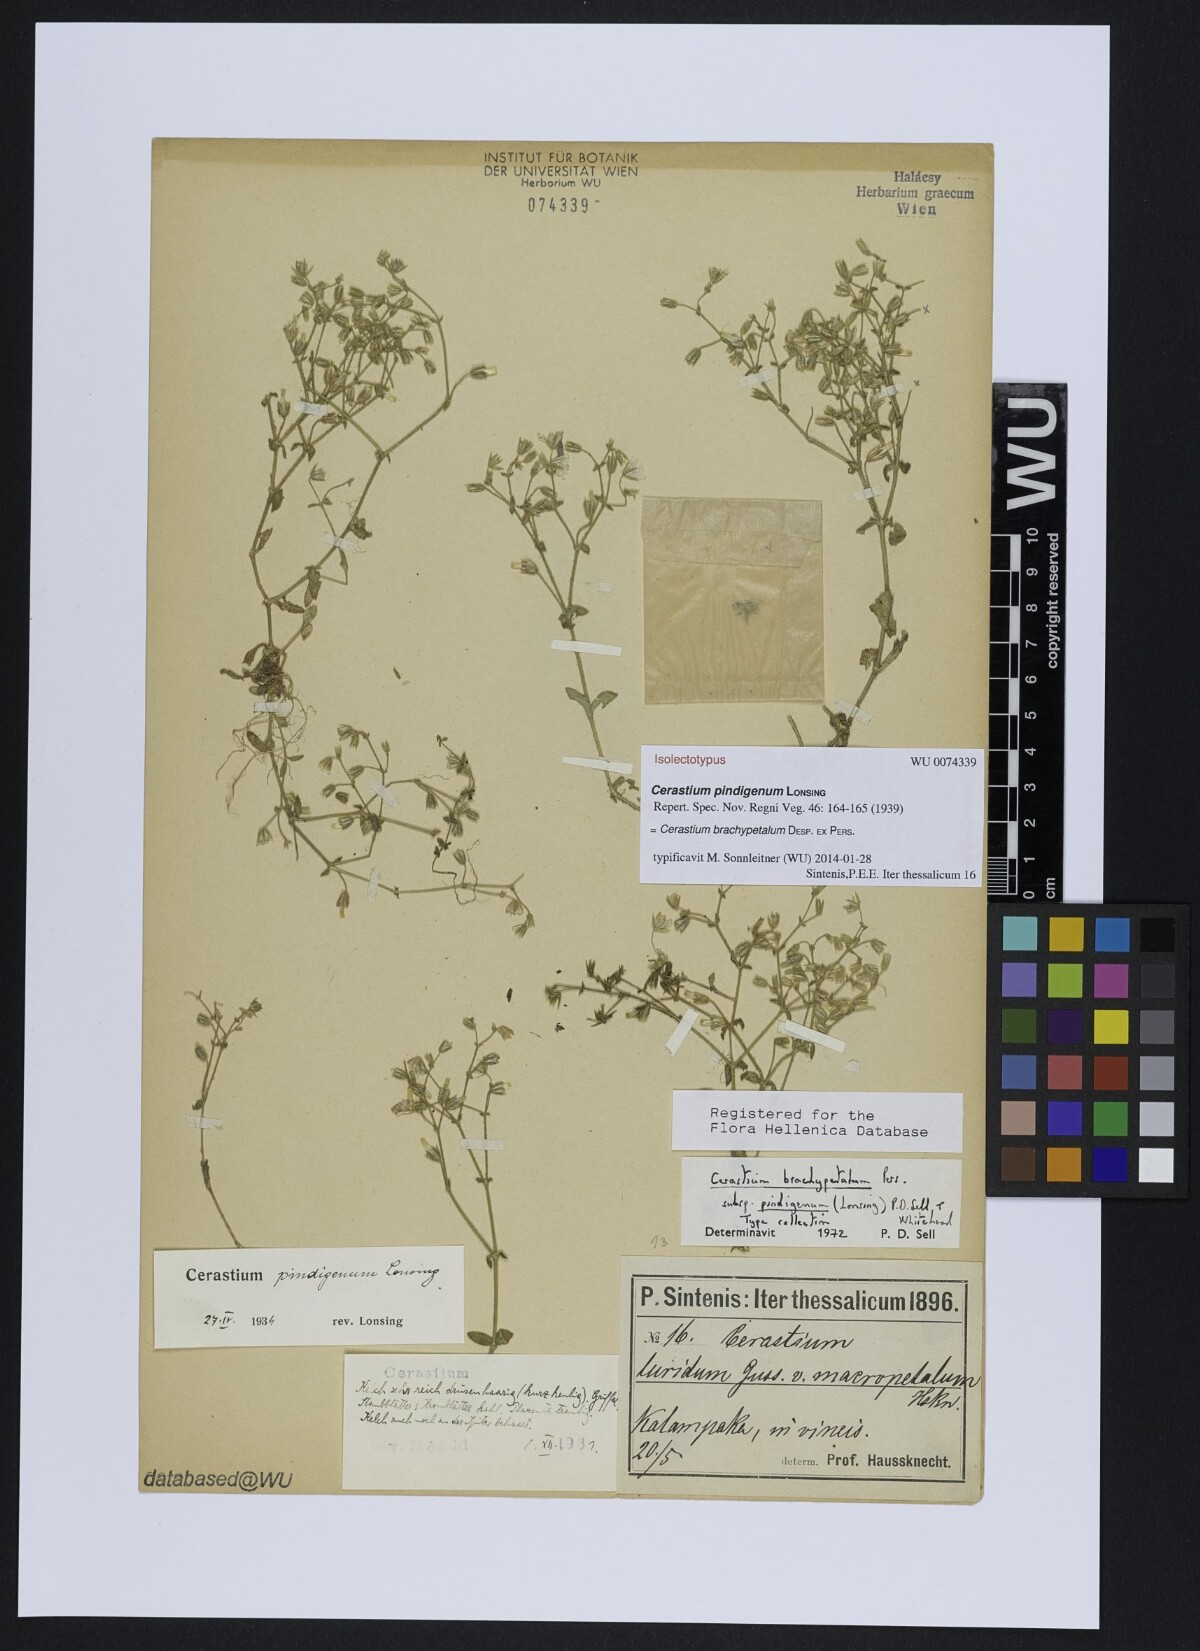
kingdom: Plantae
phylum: Tracheophyta
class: Magnoliopsida
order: Caryophyllales
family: Caryophyllaceae
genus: Cerastium
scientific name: Cerastium brachypetalum
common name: Grey mouse-ear
